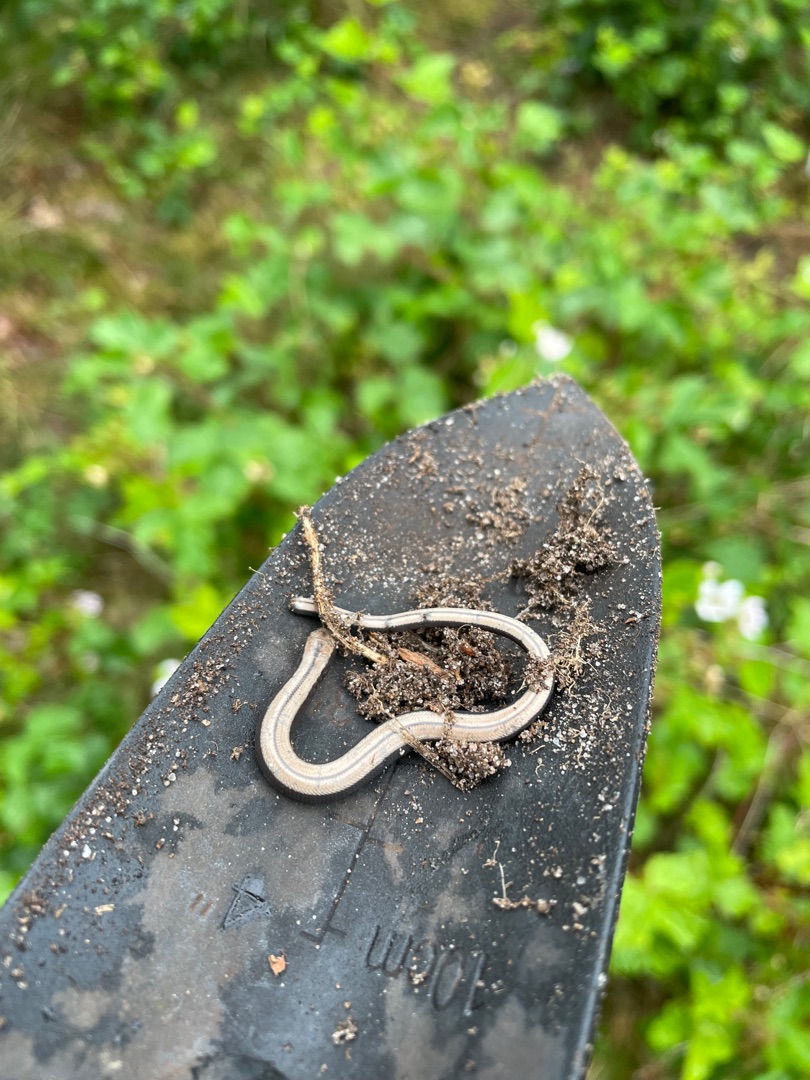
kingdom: Animalia
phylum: Chordata
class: Squamata
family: Anguidae
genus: Anguis
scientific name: Anguis fragilis
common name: Stålorm
